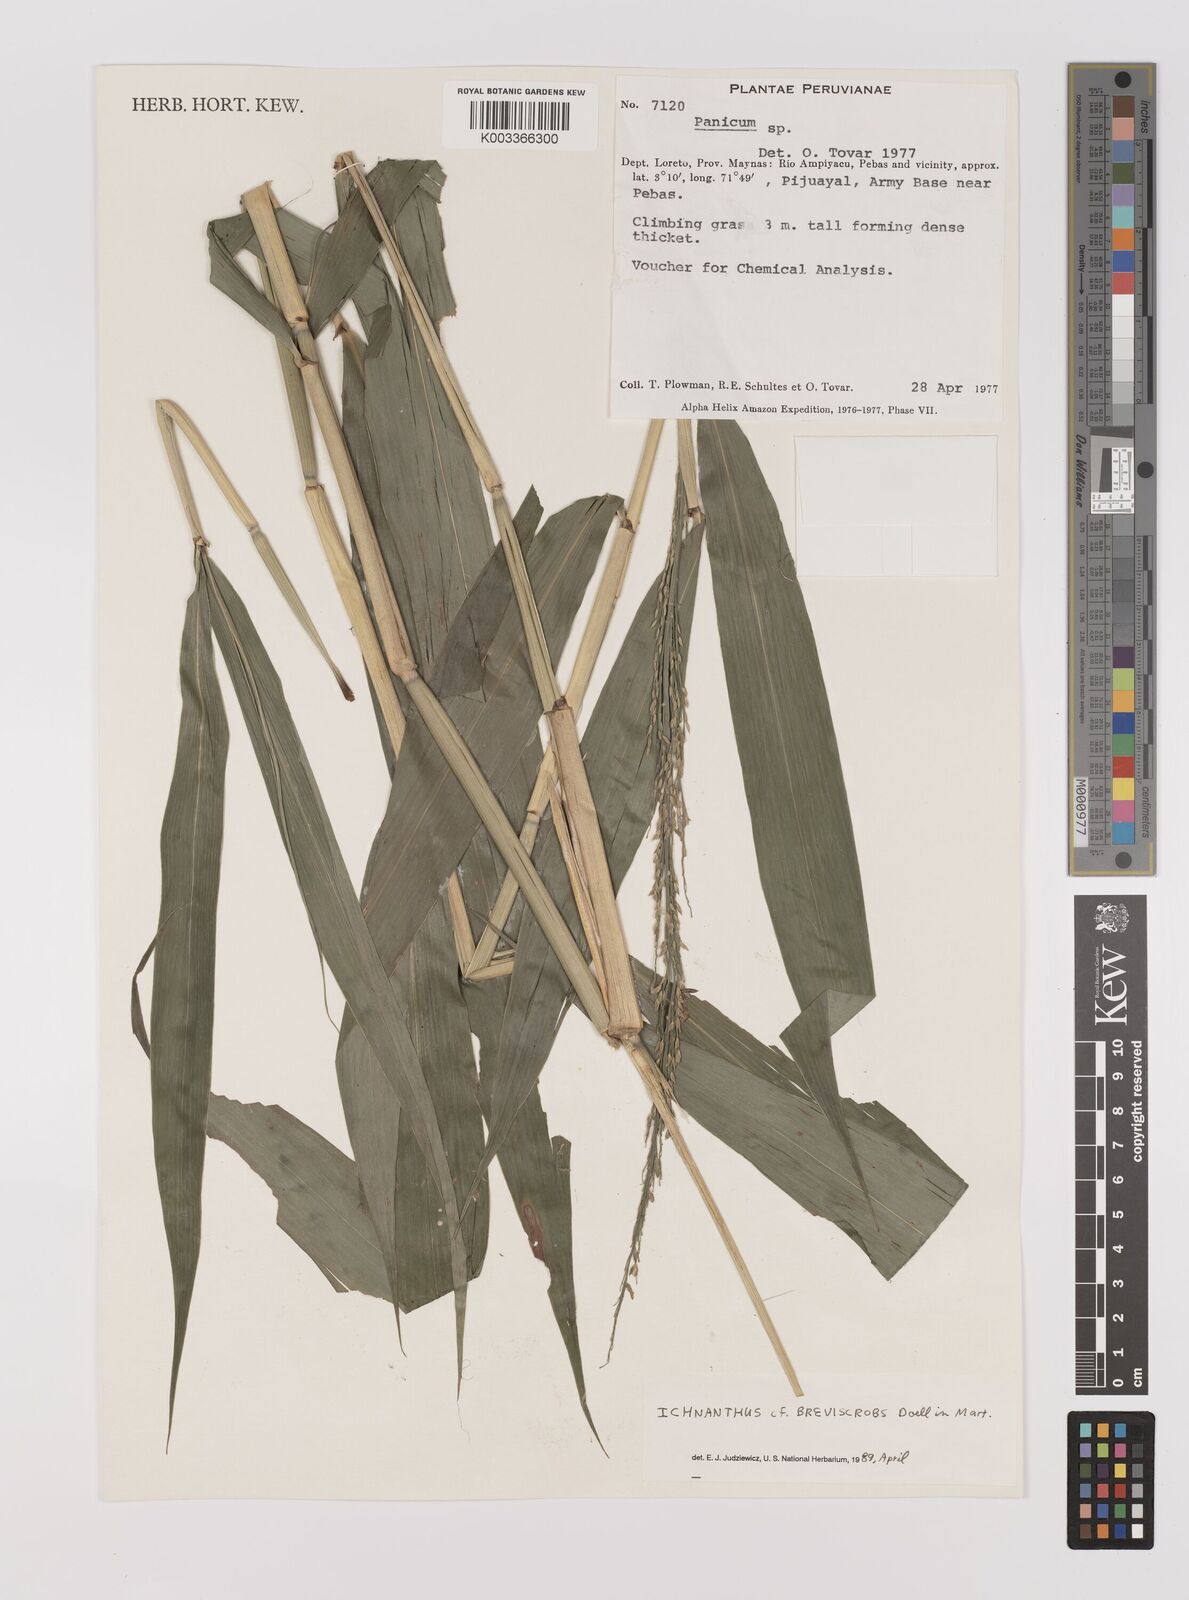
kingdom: Plantae
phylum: Tracheophyta
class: Liliopsida
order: Poales
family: Poaceae
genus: Ichnanthus
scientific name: Ichnanthus breviscrobs
